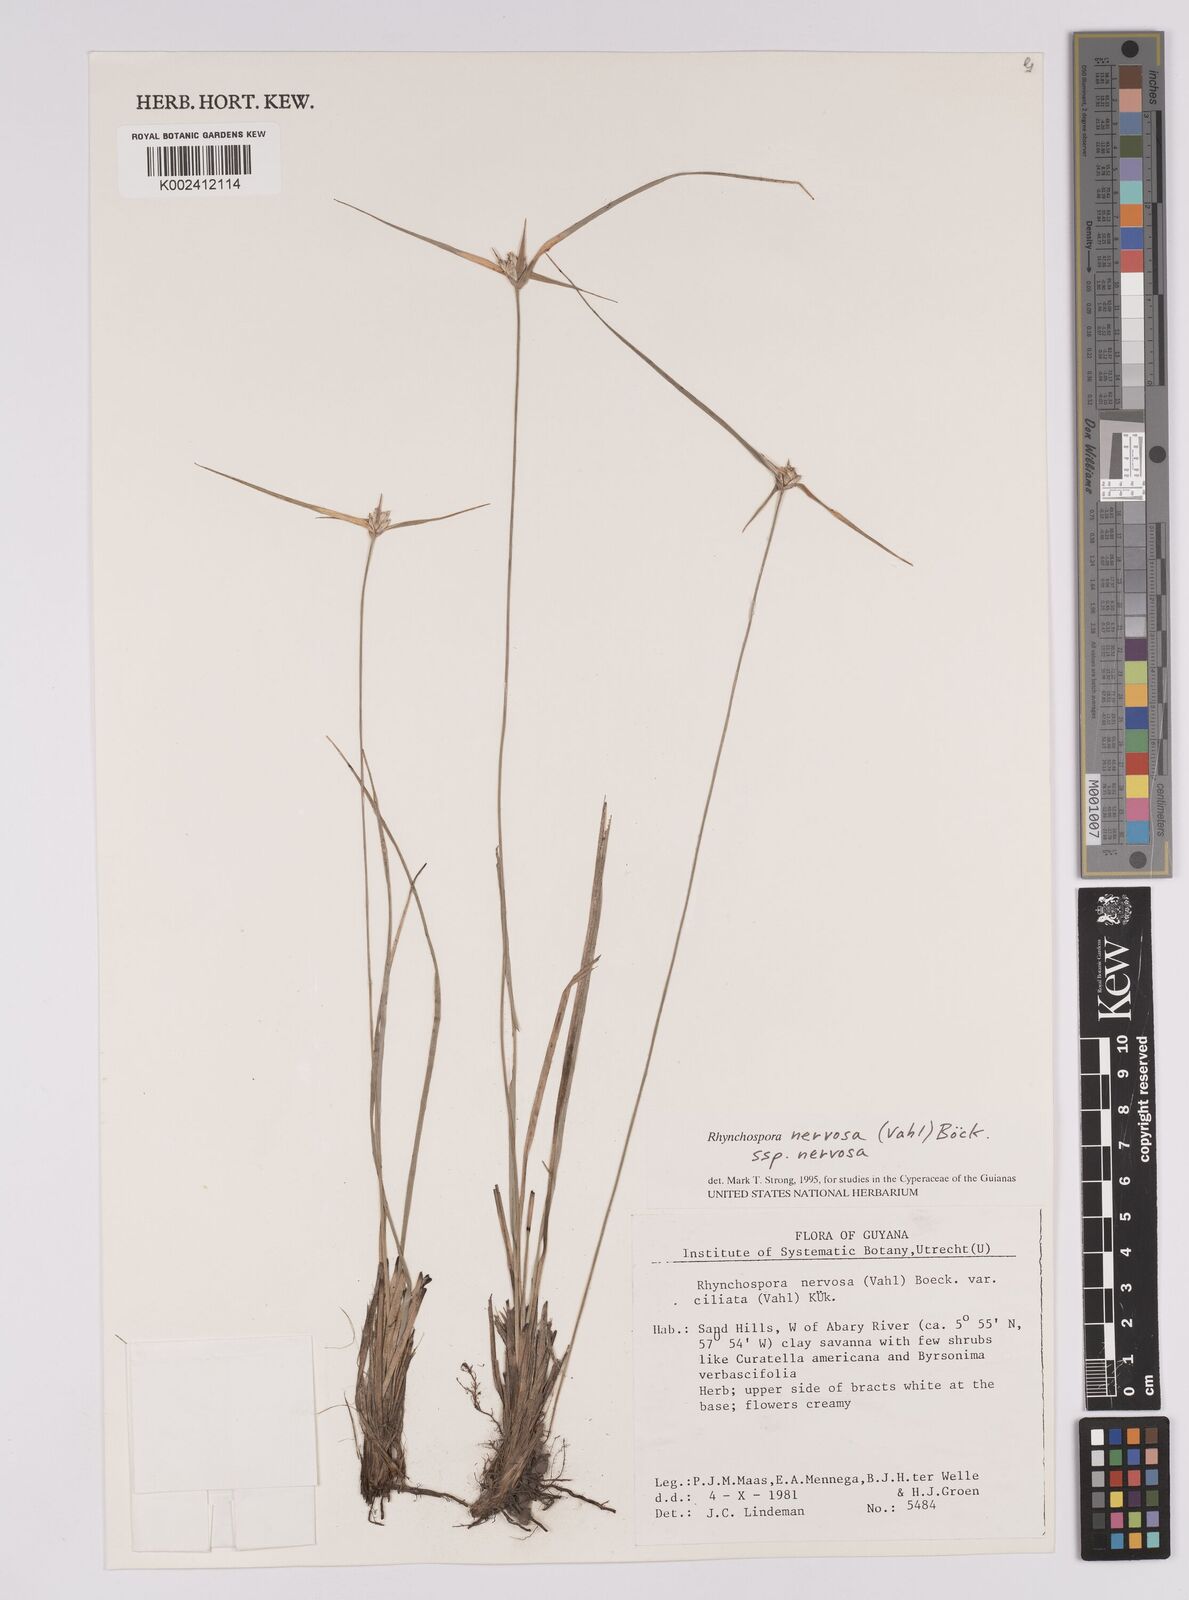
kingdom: Plantae
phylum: Tracheophyta
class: Liliopsida
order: Poales
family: Cyperaceae
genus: Rhynchospora
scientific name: Rhynchospora nervosa
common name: Star sedge
